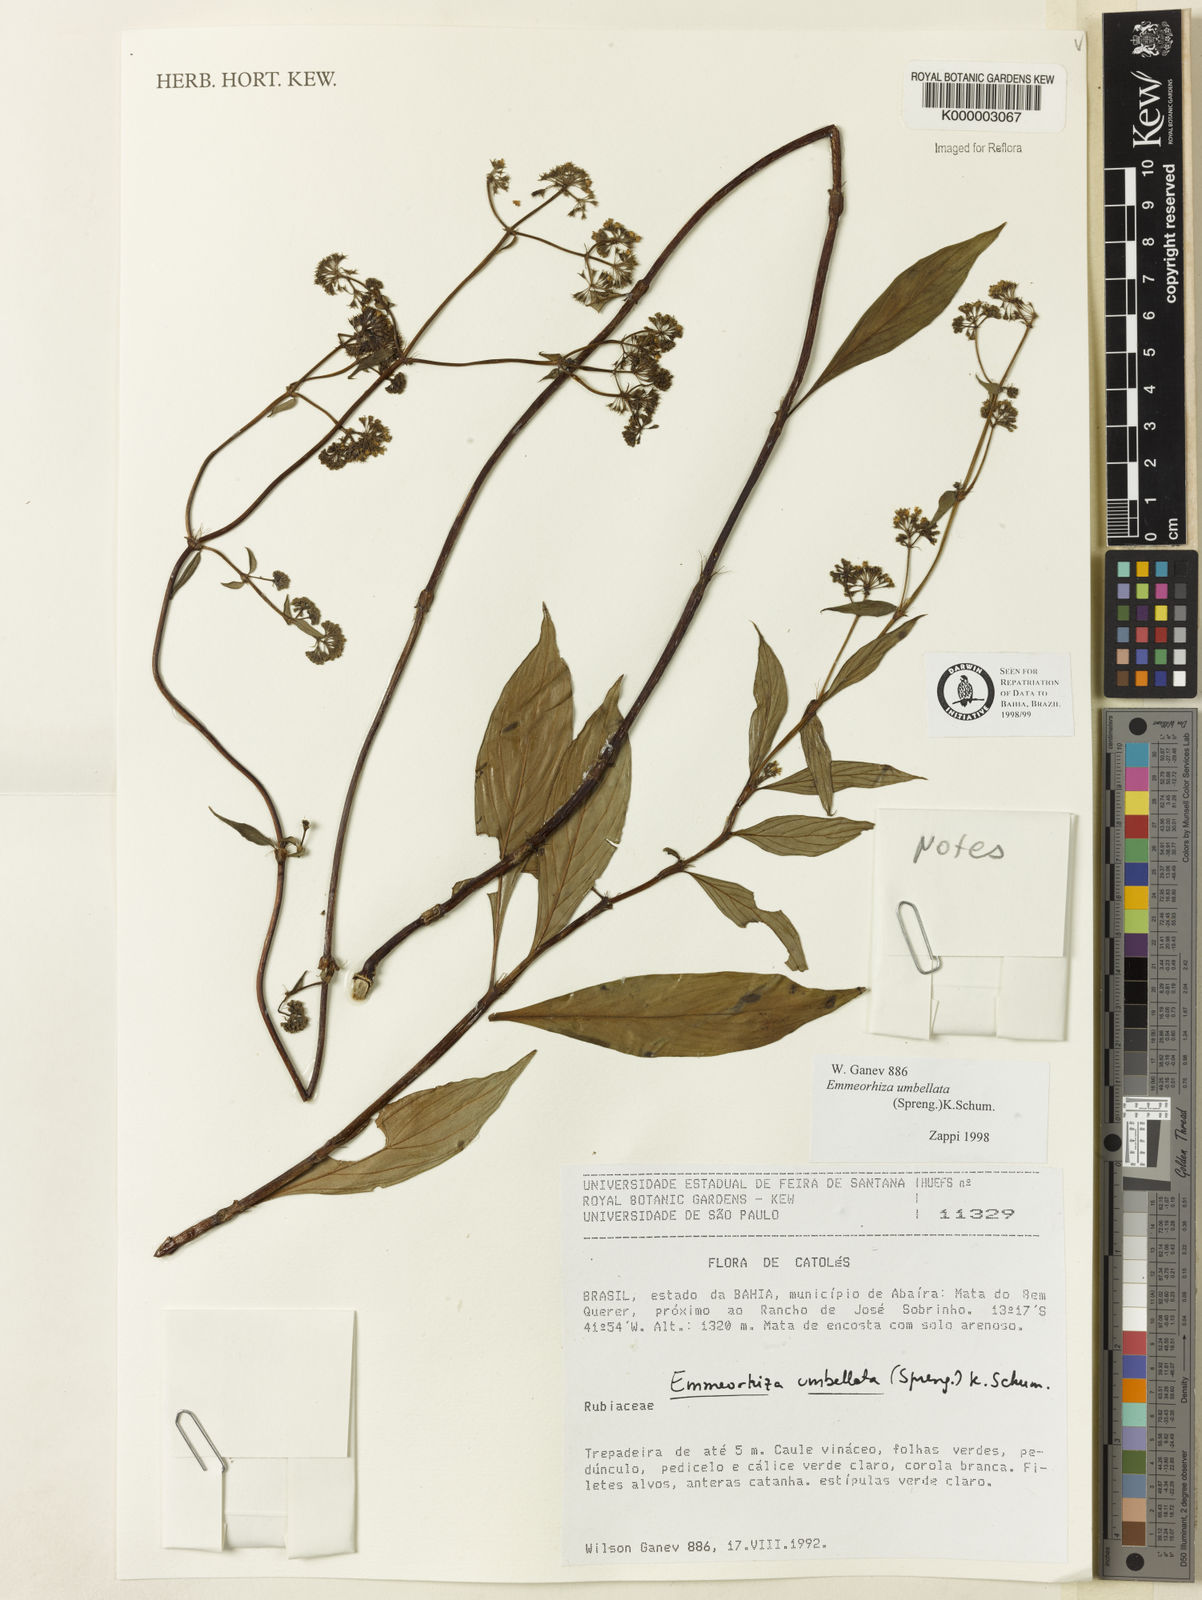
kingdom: Plantae
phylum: Tracheophyta
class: Magnoliopsida
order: Gentianales
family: Rubiaceae
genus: Emmeorhiza
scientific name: Emmeorhiza umbellata
